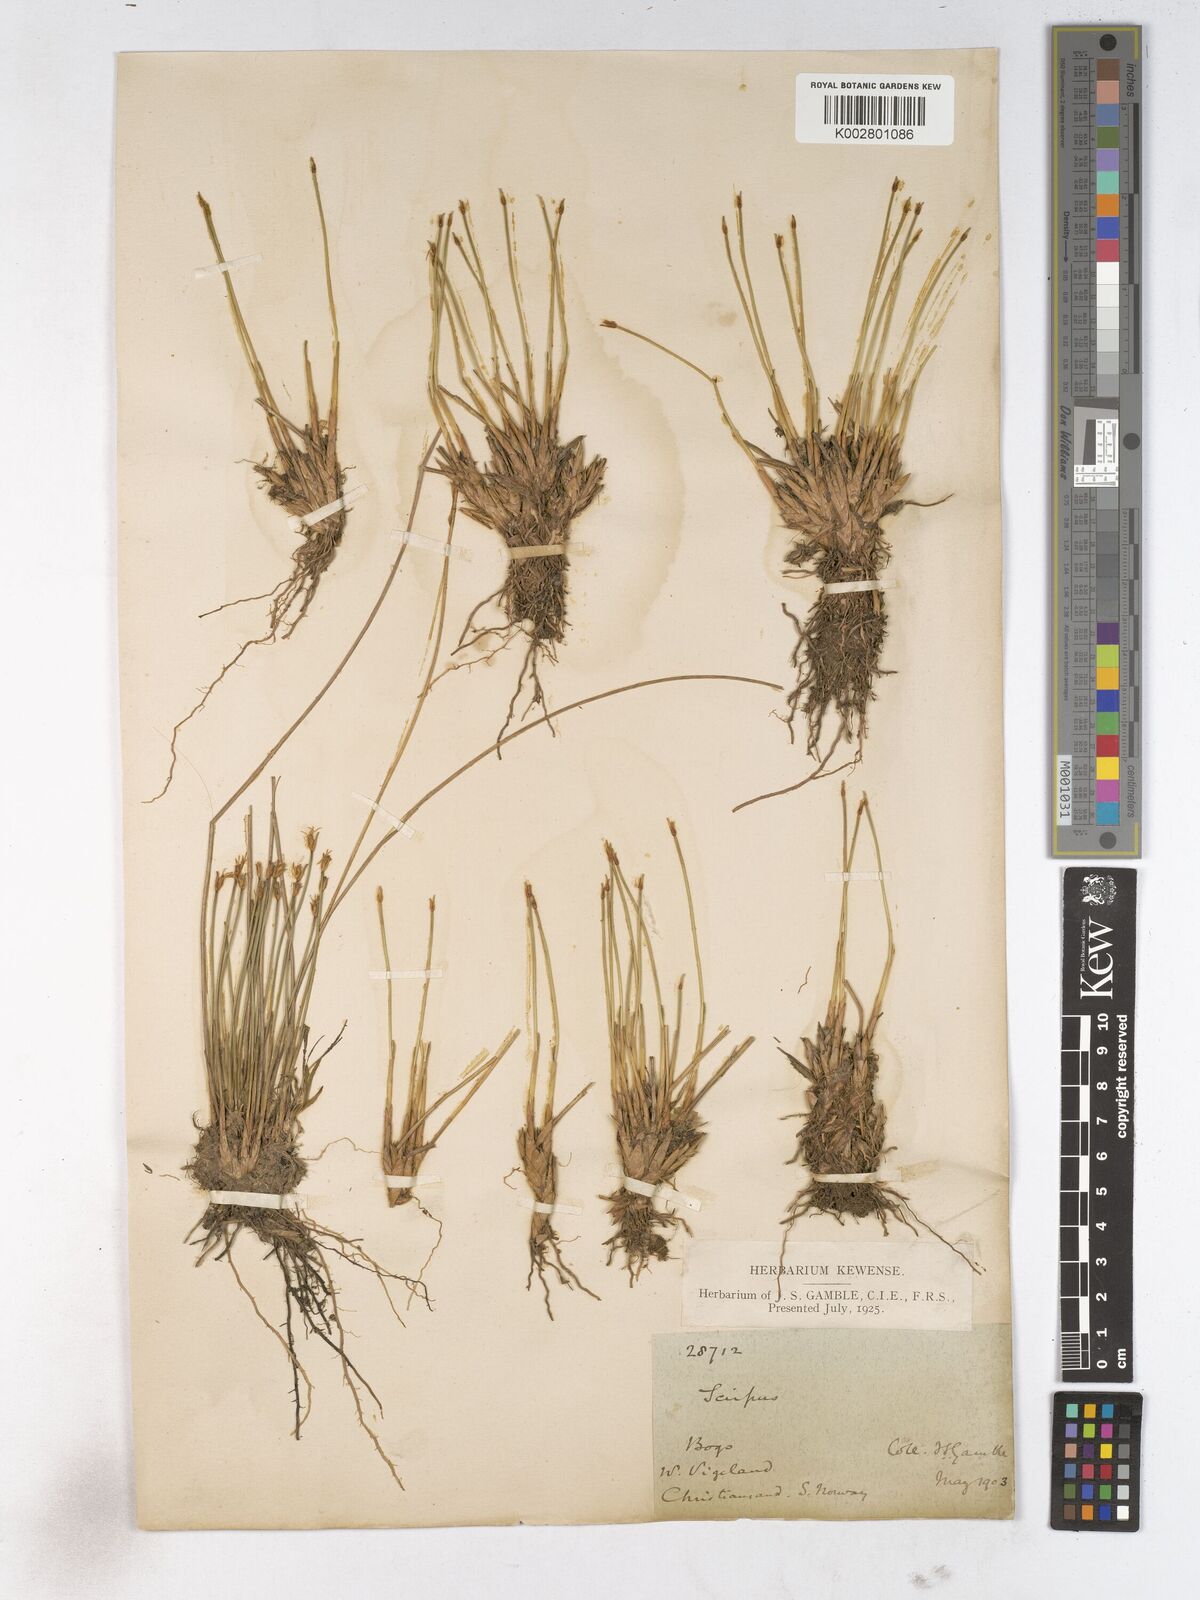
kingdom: Plantae
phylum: Tracheophyta
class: Liliopsida
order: Poales
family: Cyperaceae
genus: Trichophorum
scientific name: Trichophorum cespitosum
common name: Cespitose bulrush
